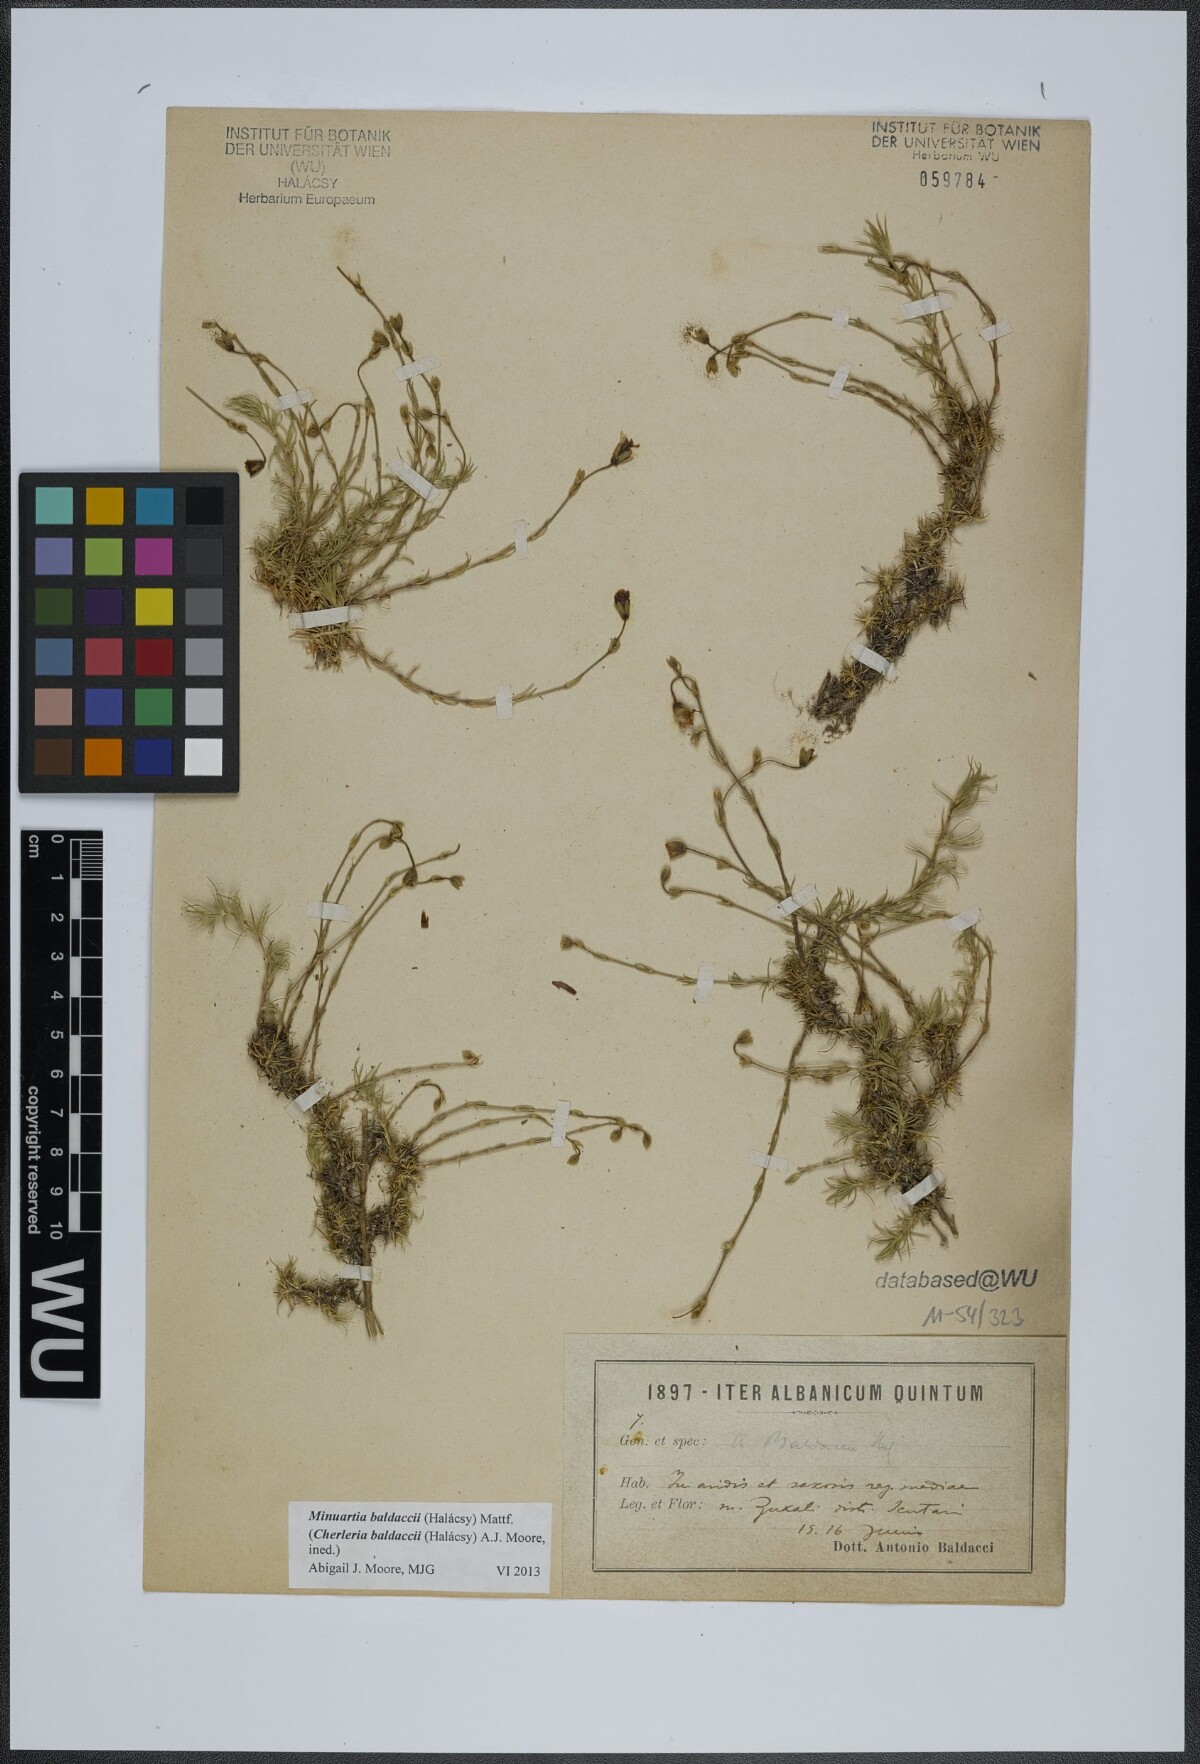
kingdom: Plantae
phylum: Tracheophyta
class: Magnoliopsida
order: Caryophyllales
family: Caryophyllaceae
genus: Cherleria
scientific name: Cherleria baldaccii
